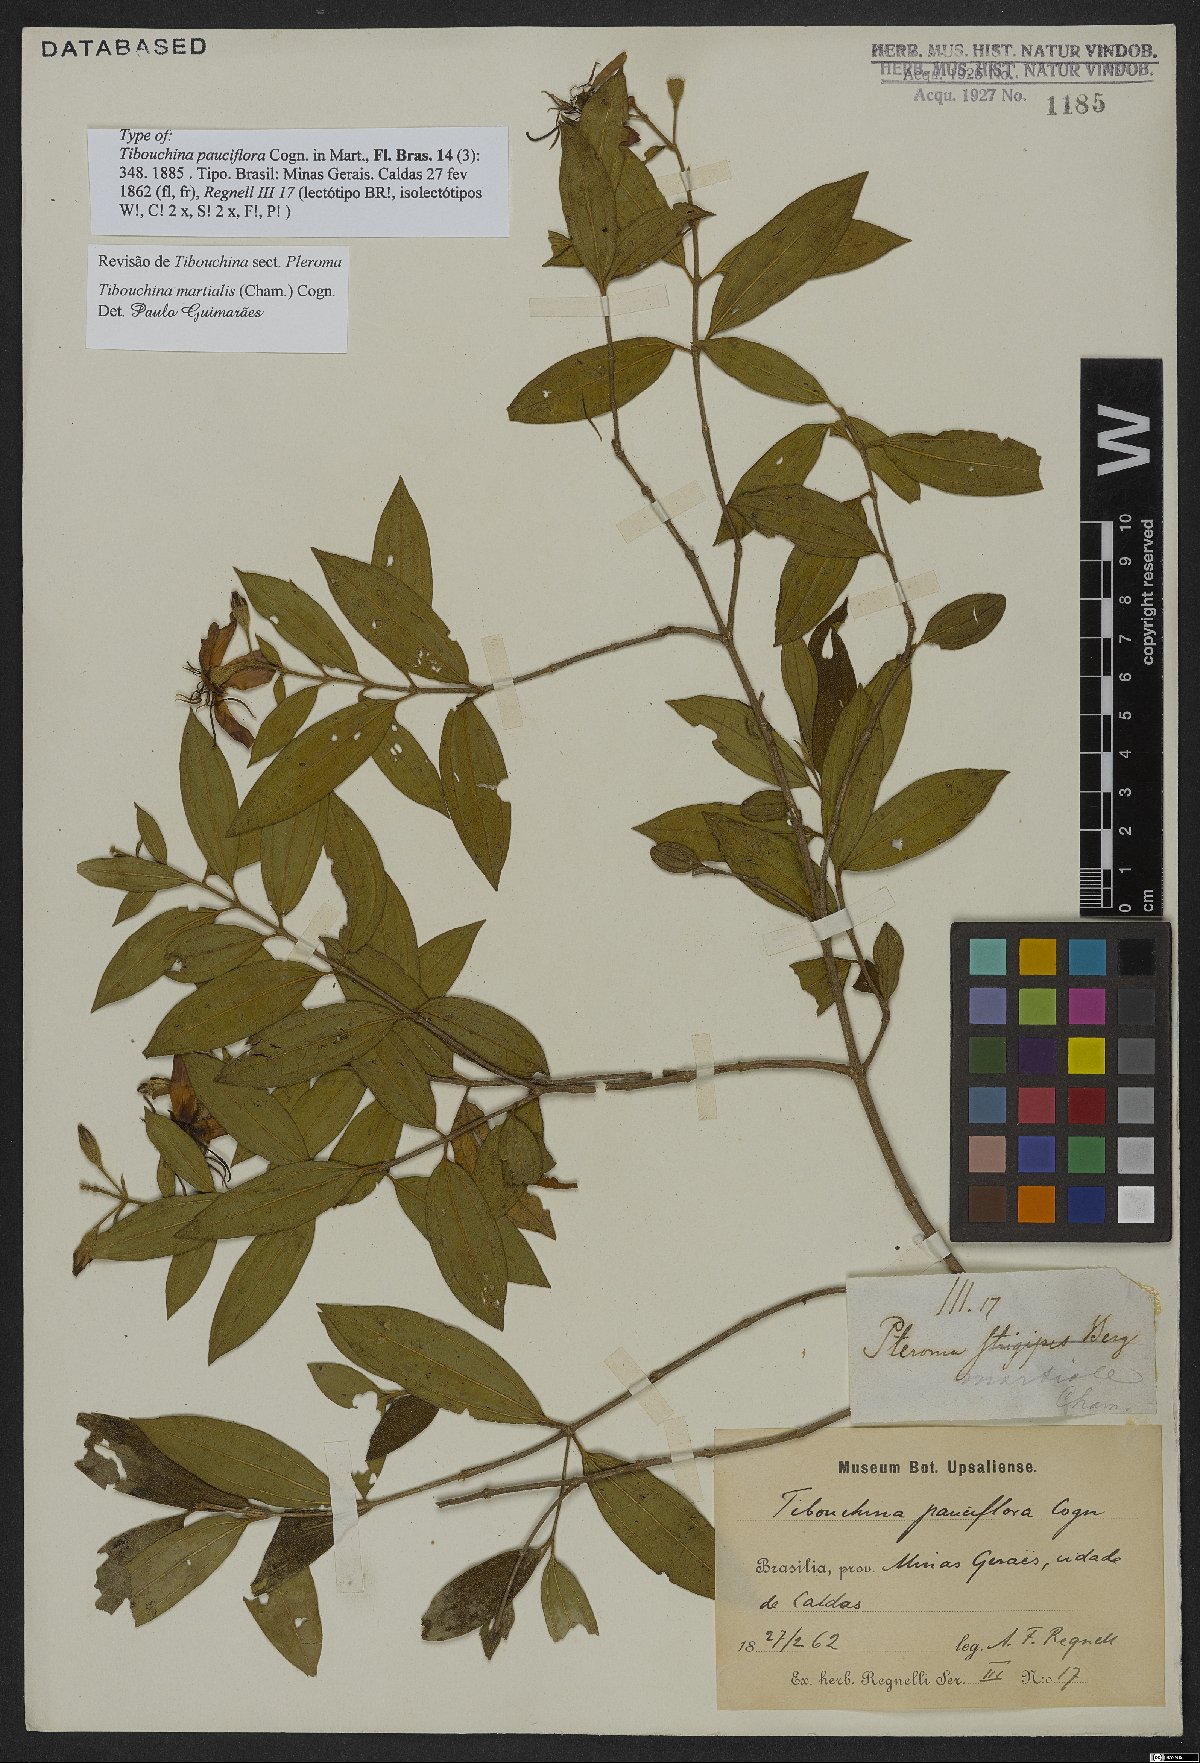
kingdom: Plantae
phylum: Tracheophyta
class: Magnoliopsida
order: Myrtales
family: Melastomataceae
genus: Pleroma
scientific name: Pleroma martiale
